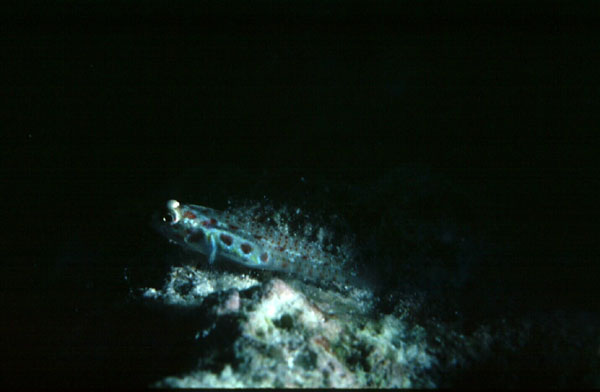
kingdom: Animalia
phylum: Chordata
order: Perciformes
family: Gobiidae
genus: Eviota
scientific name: Eviota guttata
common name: Green pygmy-goby
